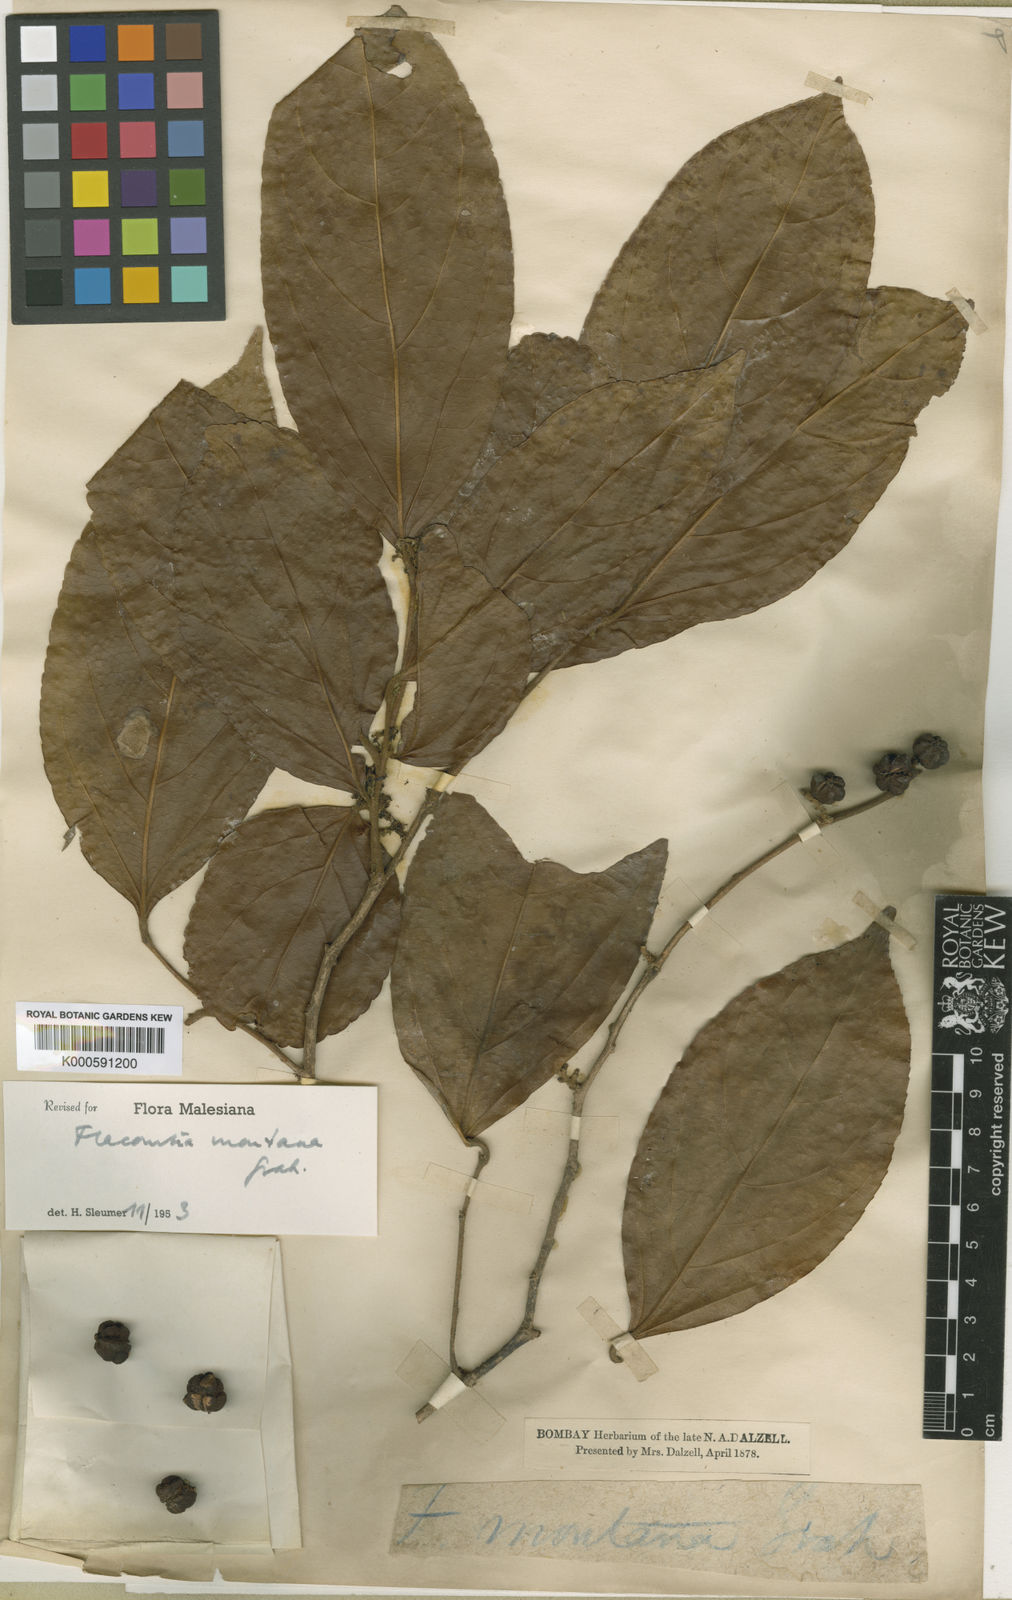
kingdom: Plantae
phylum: Tracheophyta
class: Magnoliopsida
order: Malpighiales
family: Salicaceae
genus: Flacourtia
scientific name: Flacourtia montana
